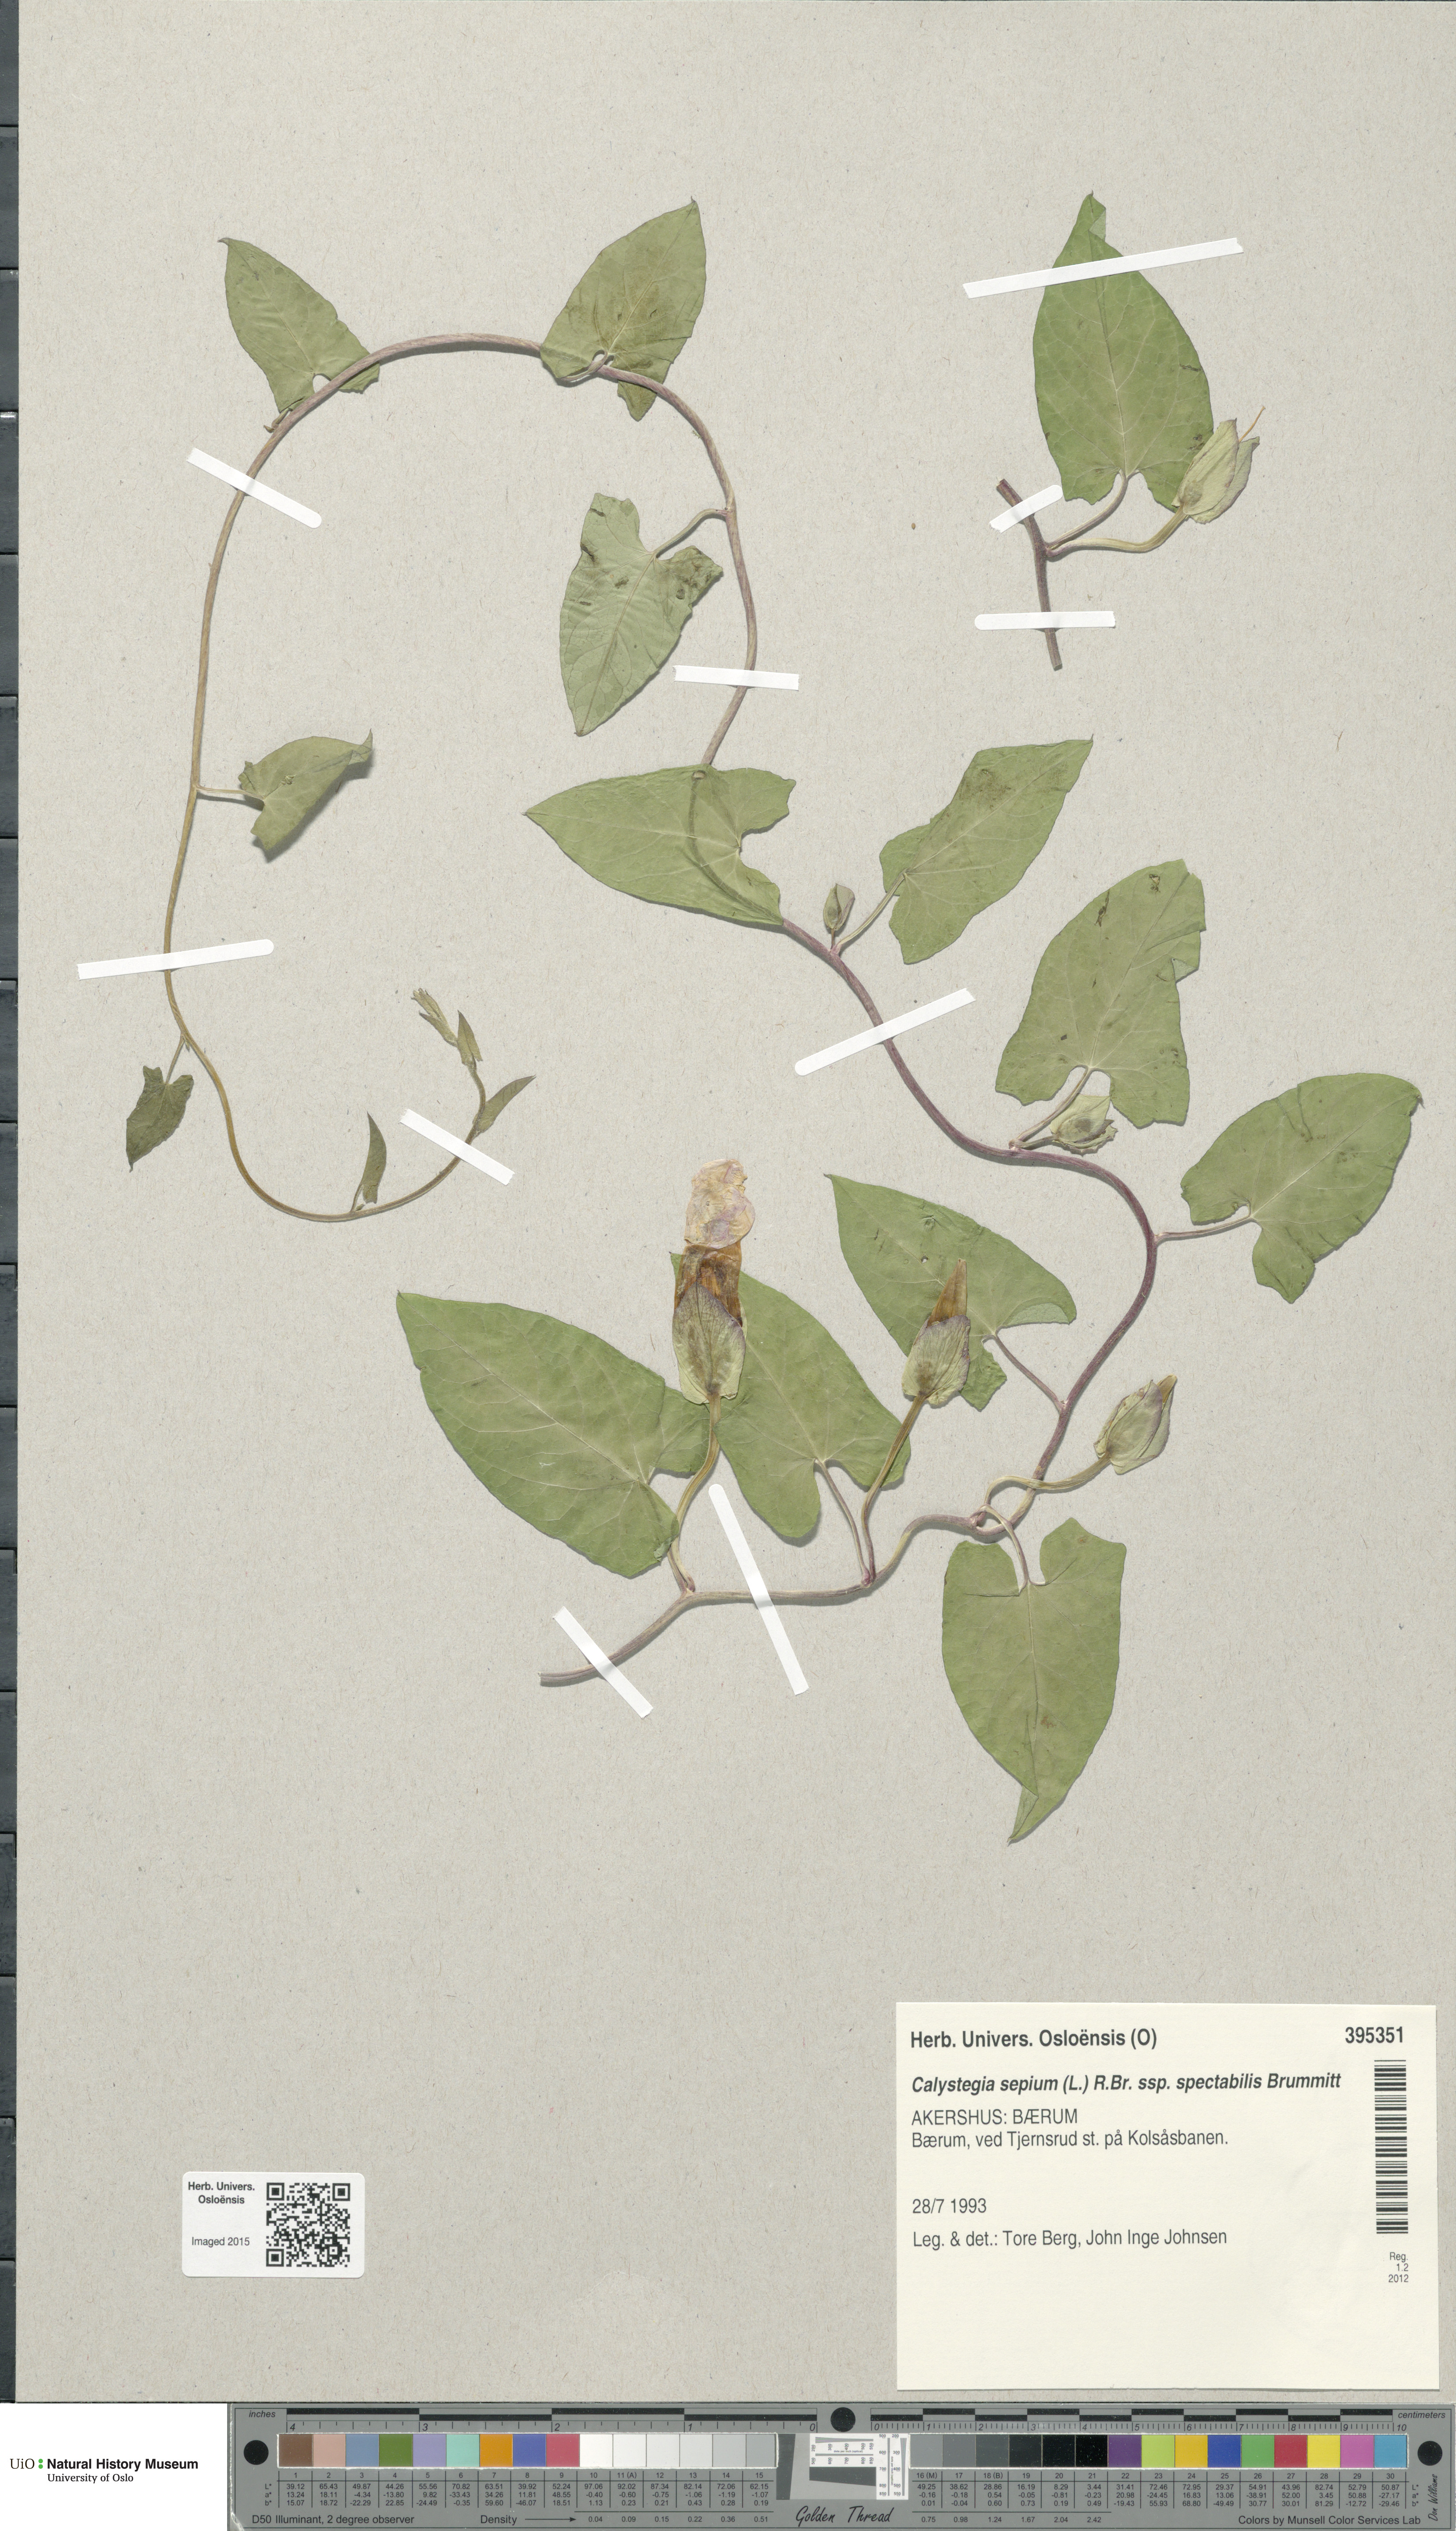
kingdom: Plantae
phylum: Tracheophyta
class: Magnoliopsida
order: Solanales
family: Convolvulaceae
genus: Calystegia
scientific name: Calystegia pulchra
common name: Hairy bindweed
